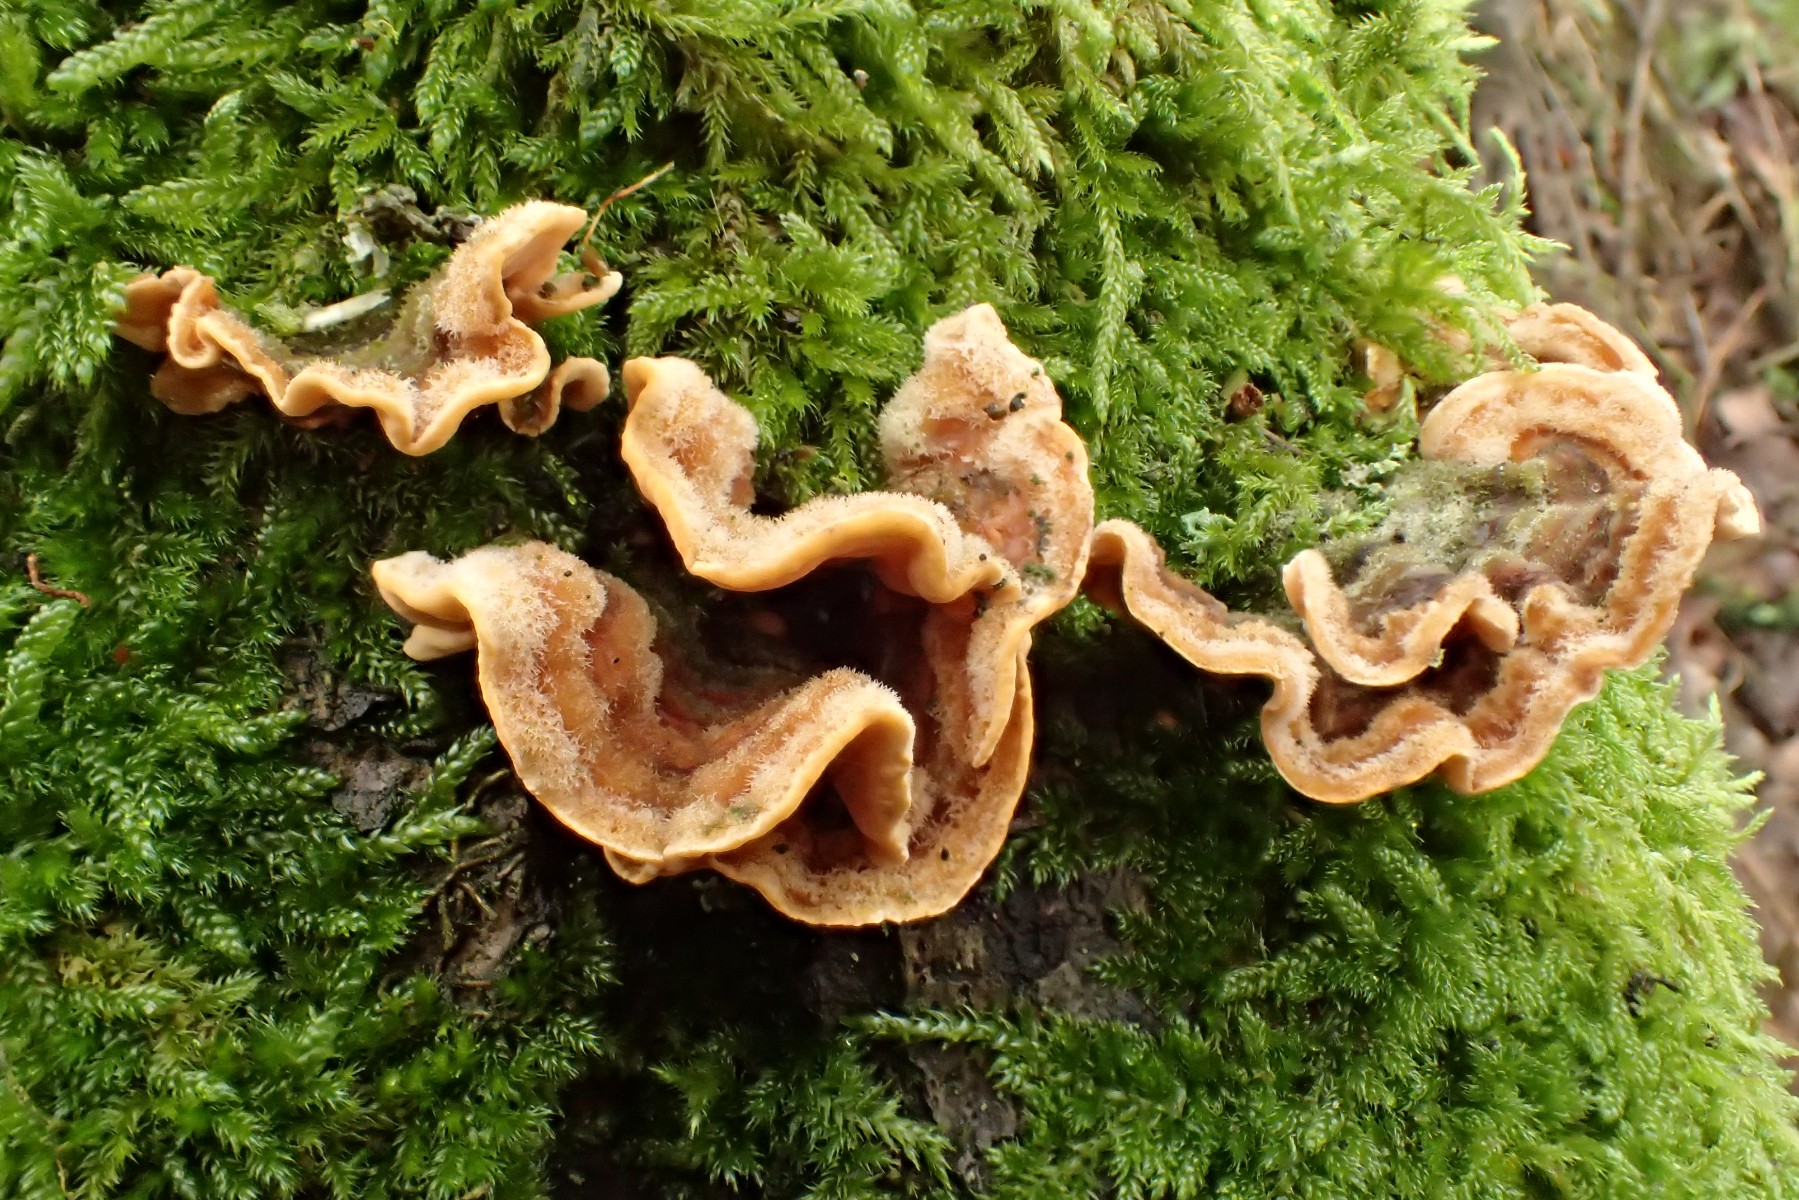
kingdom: Fungi
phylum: Basidiomycota
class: Agaricomycetes
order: Russulales
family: Stereaceae
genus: Stereum
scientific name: Stereum hirsutum
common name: håret lædersvamp
